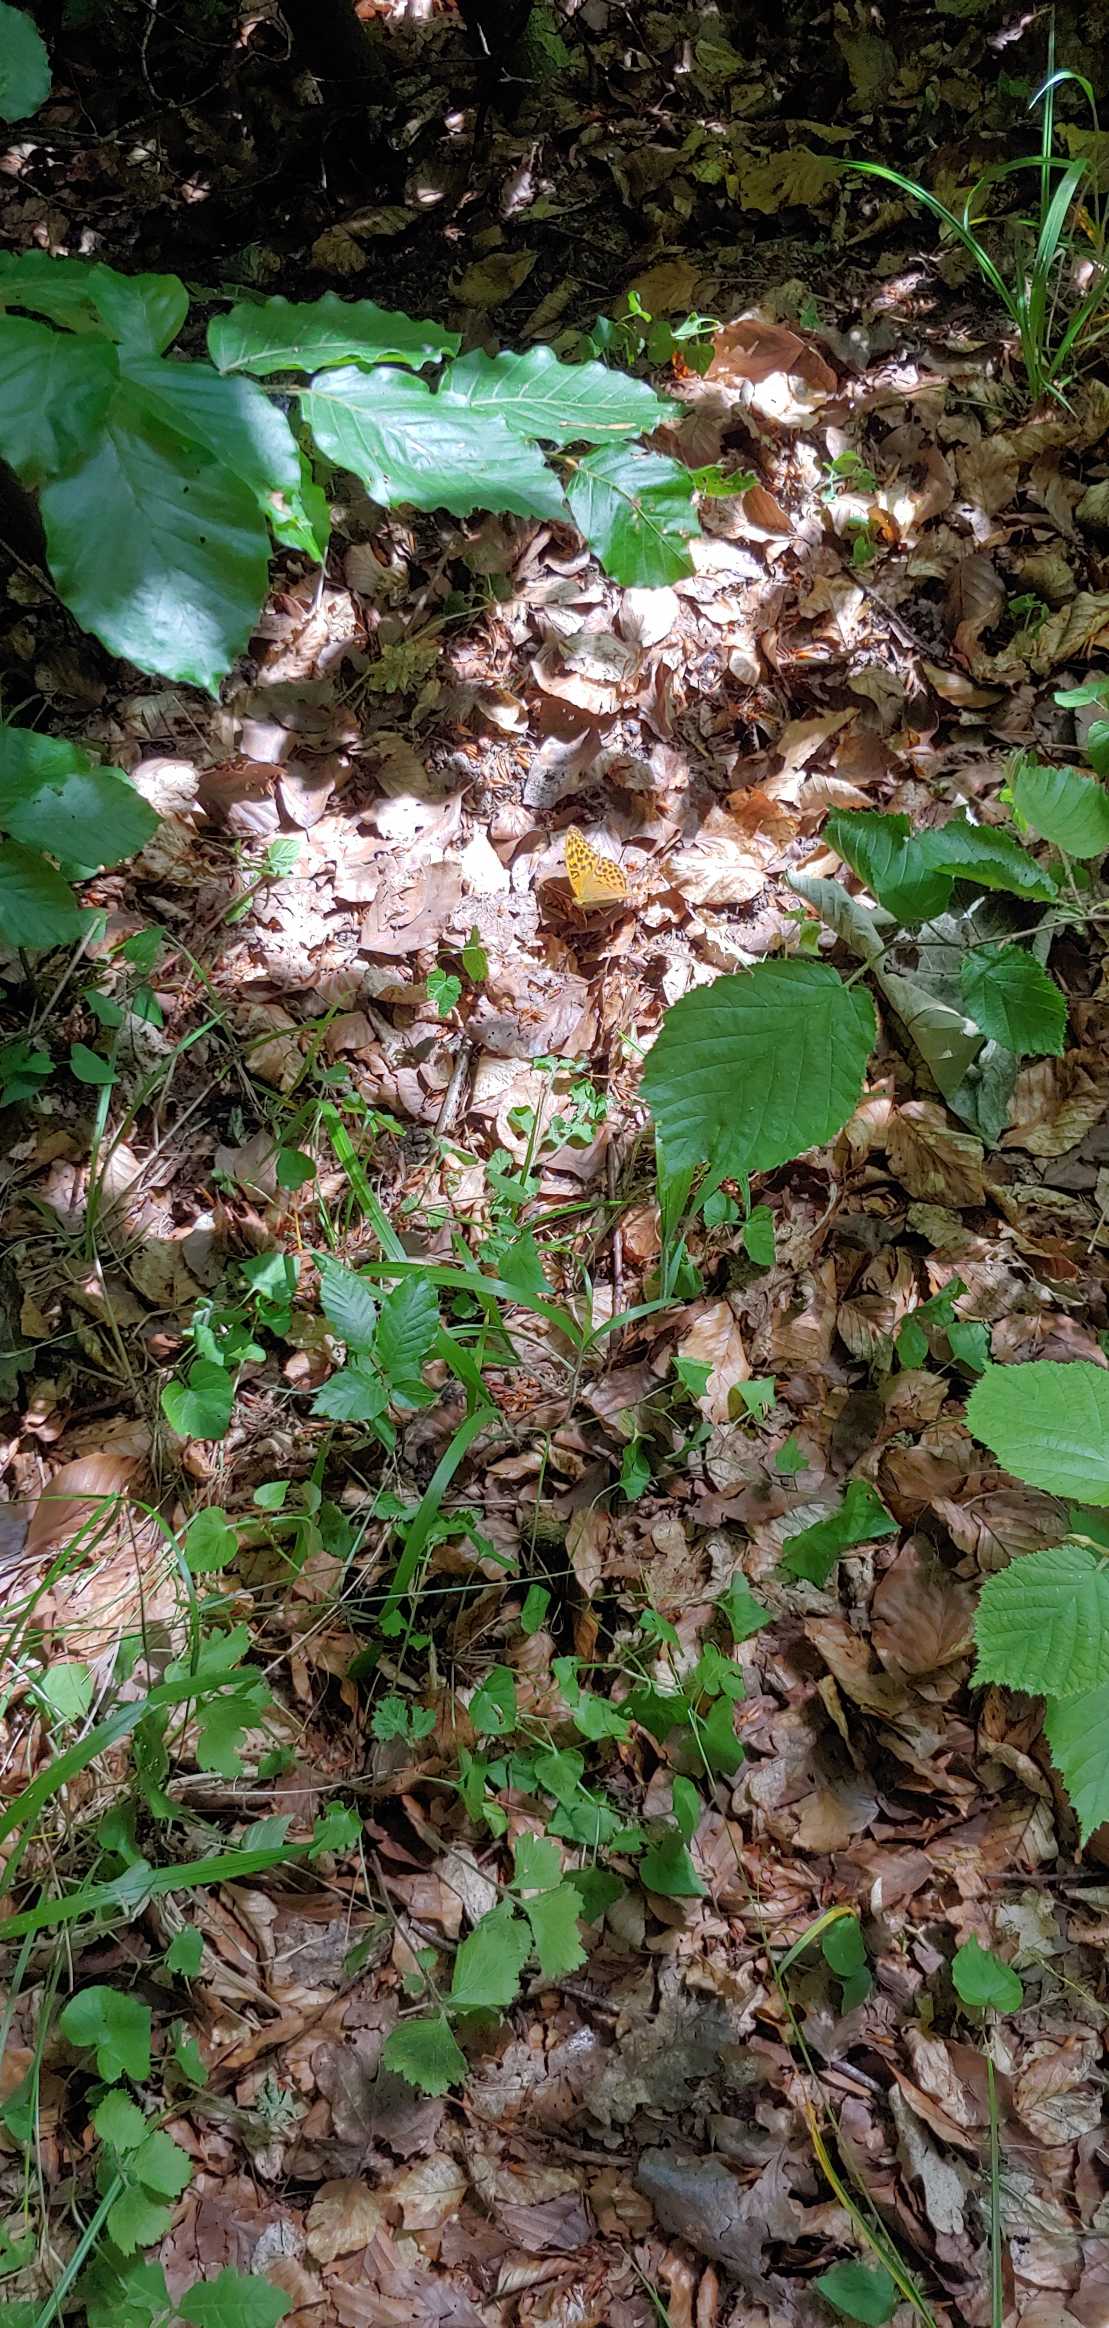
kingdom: Animalia
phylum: Arthropoda
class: Insecta
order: Lepidoptera
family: Nymphalidae
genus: Argynnis
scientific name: Argynnis paphia
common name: Kejserkåbe
